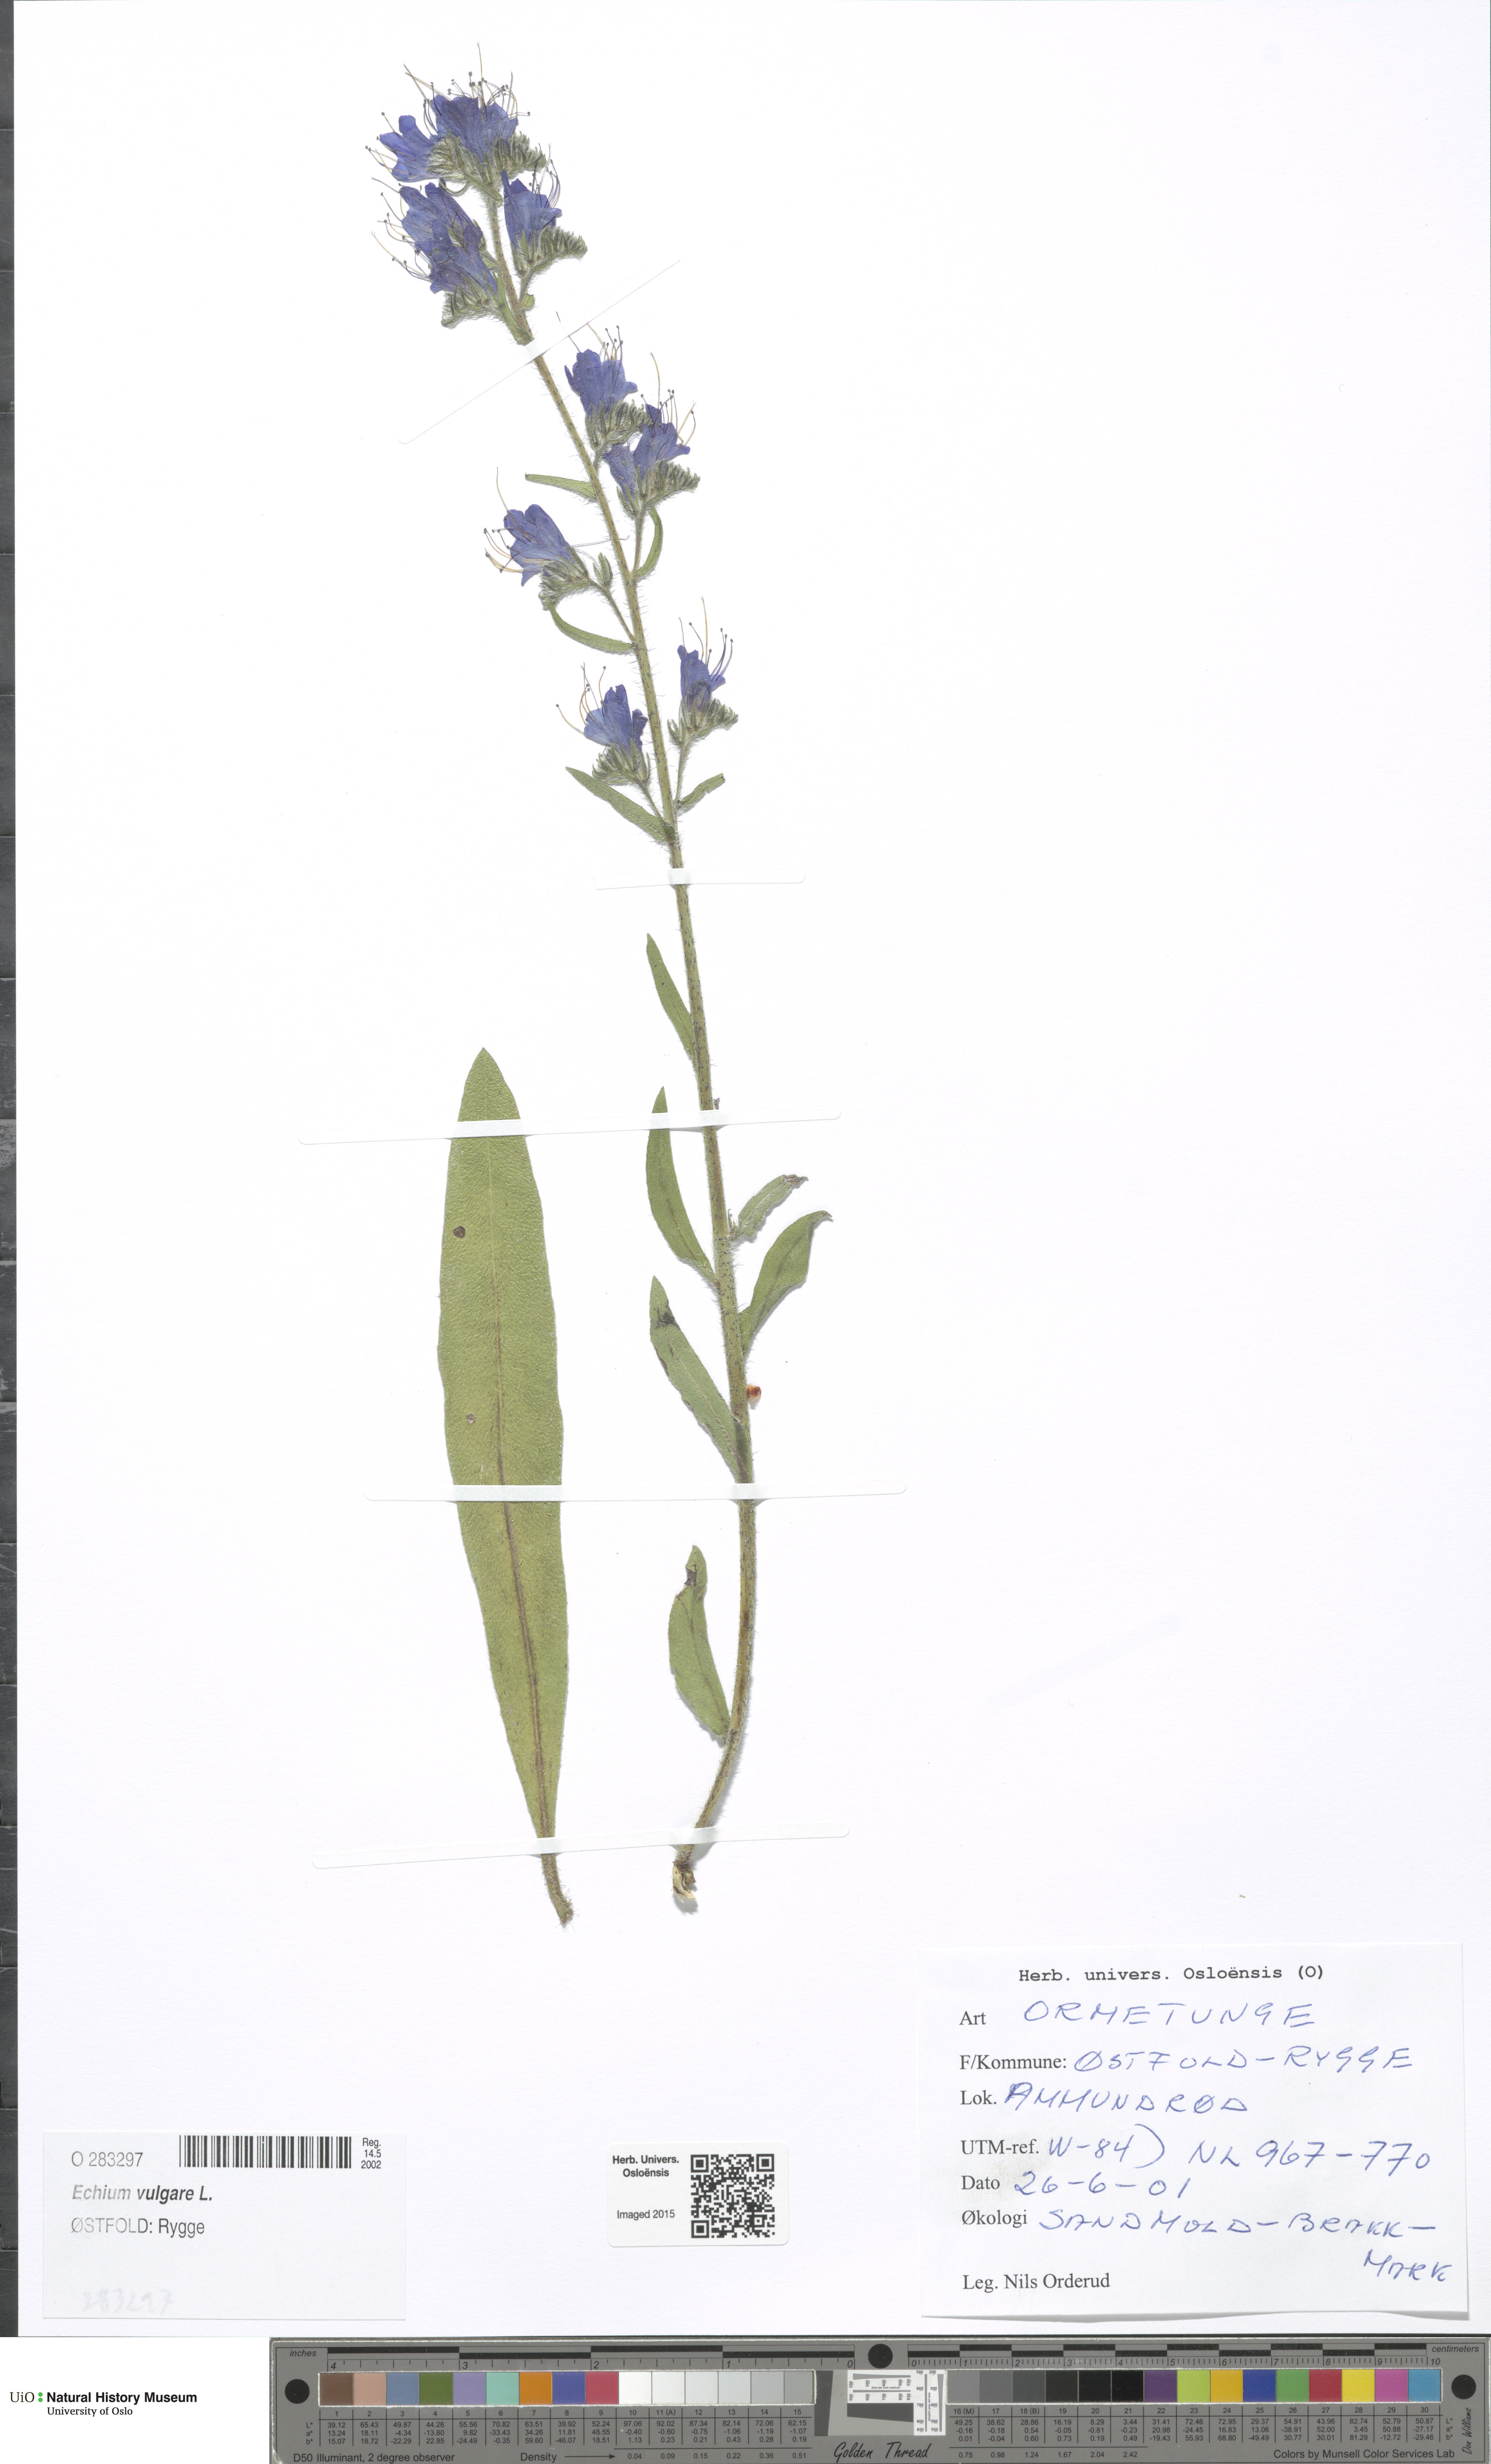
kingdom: Plantae
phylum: Tracheophyta
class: Magnoliopsida
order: Boraginales
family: Boraginaceae
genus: Echium
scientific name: Echium vulgare
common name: Common viper's bugloss
